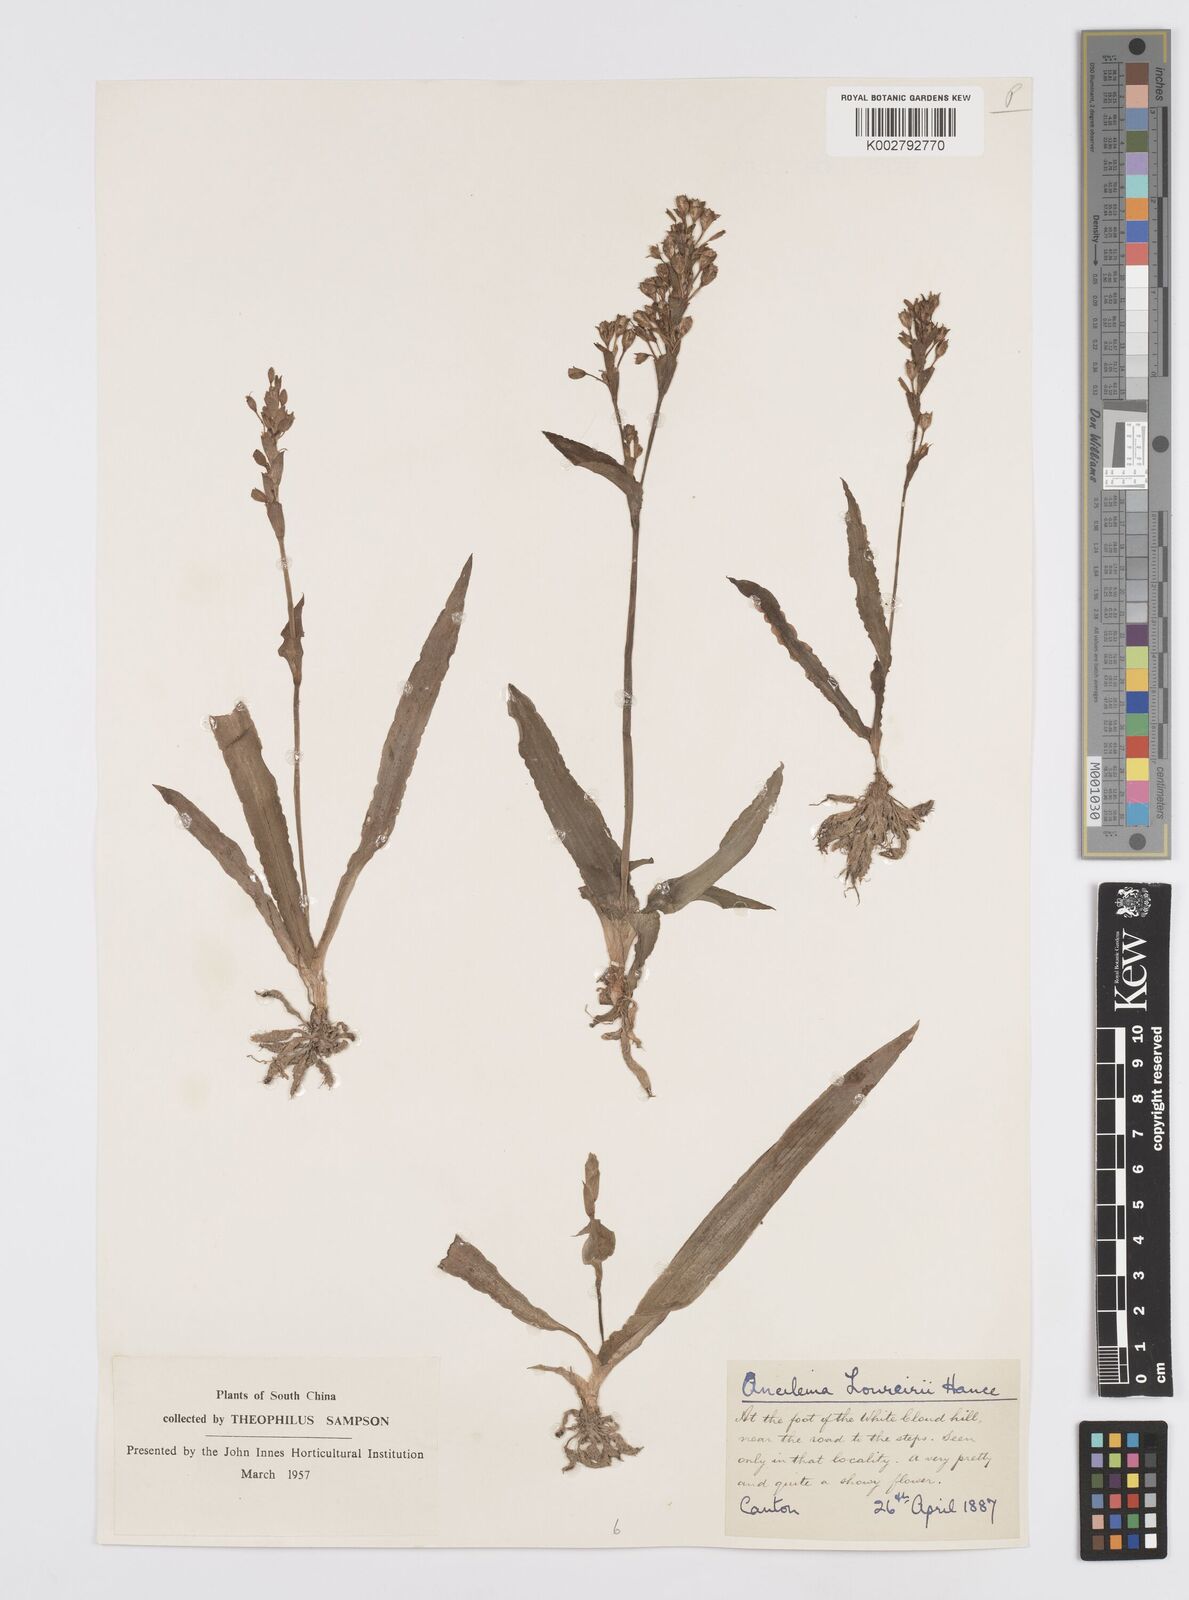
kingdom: Plantae
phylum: Tracheophyta
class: Liliopsida
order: Commelinales
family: Commelinaceae
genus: Murdannia
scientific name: Murdannia edulis
